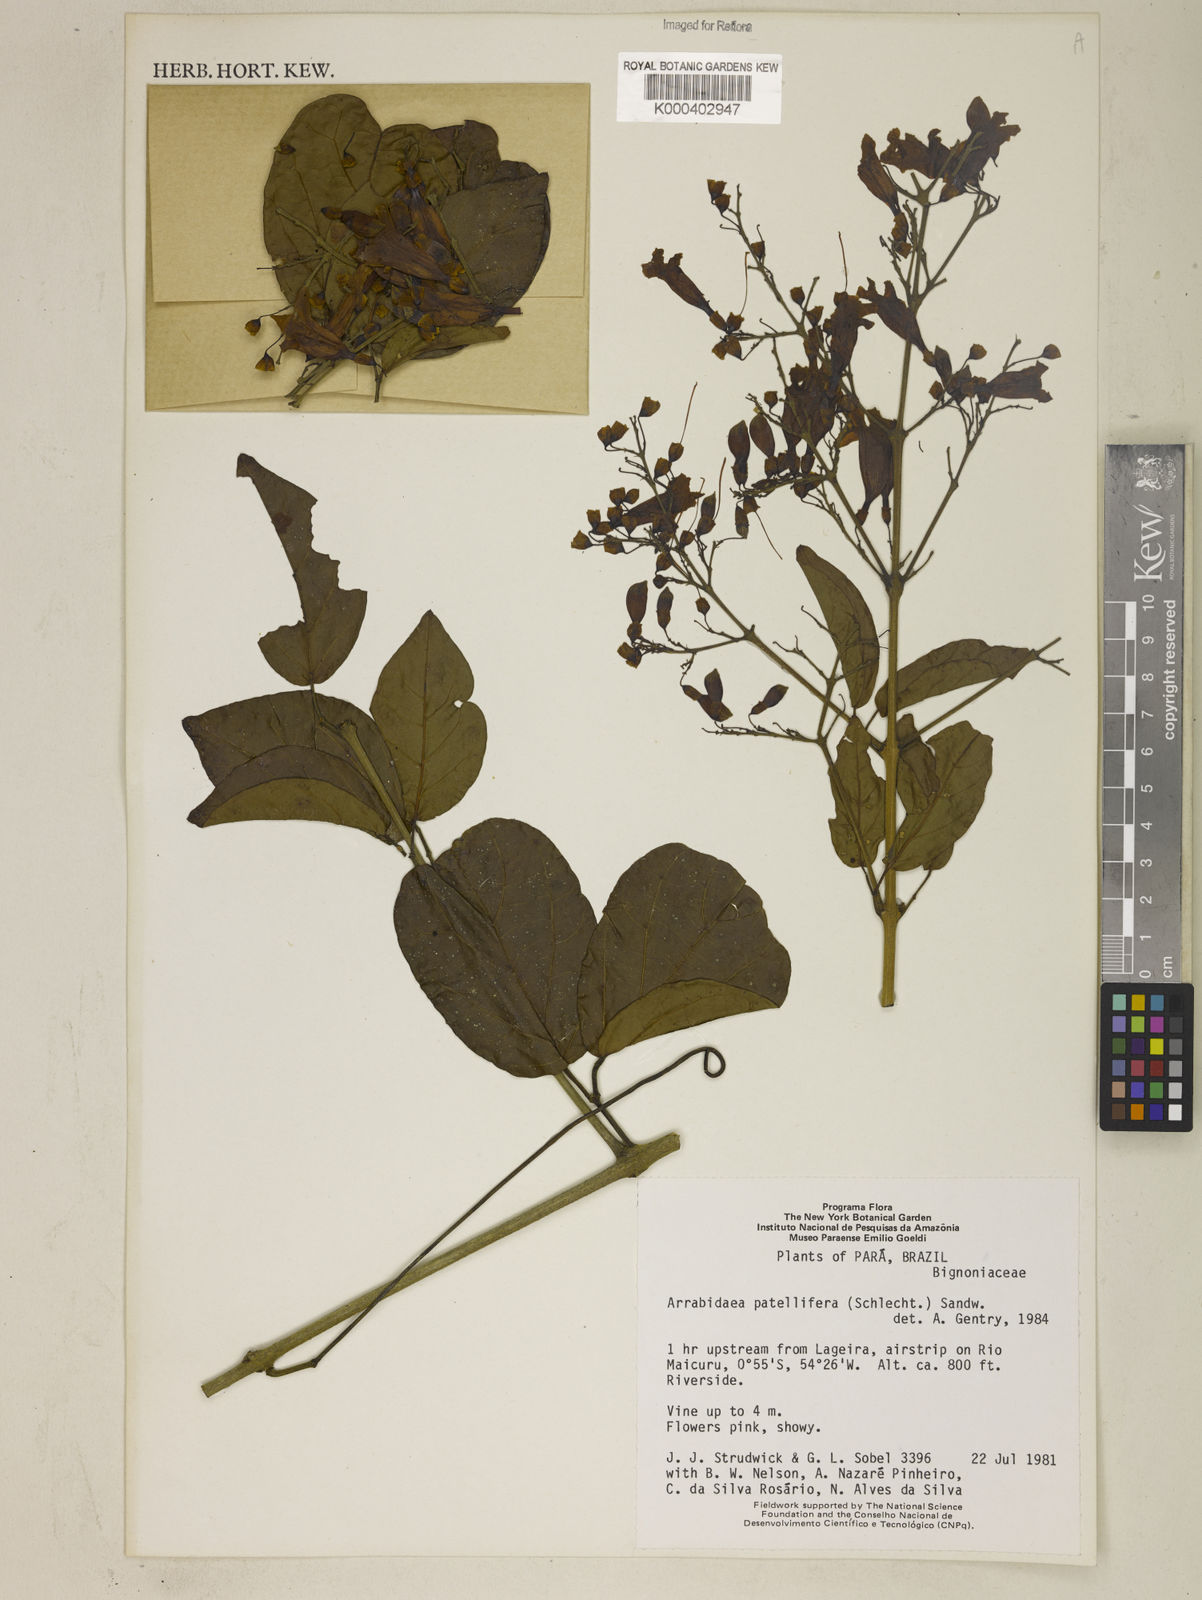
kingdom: Plantae
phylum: Tracheophyta
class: Magnoliopsida
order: Lamiales
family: Bignoniaceae
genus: Fridericia
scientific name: Fridericia patellifera
